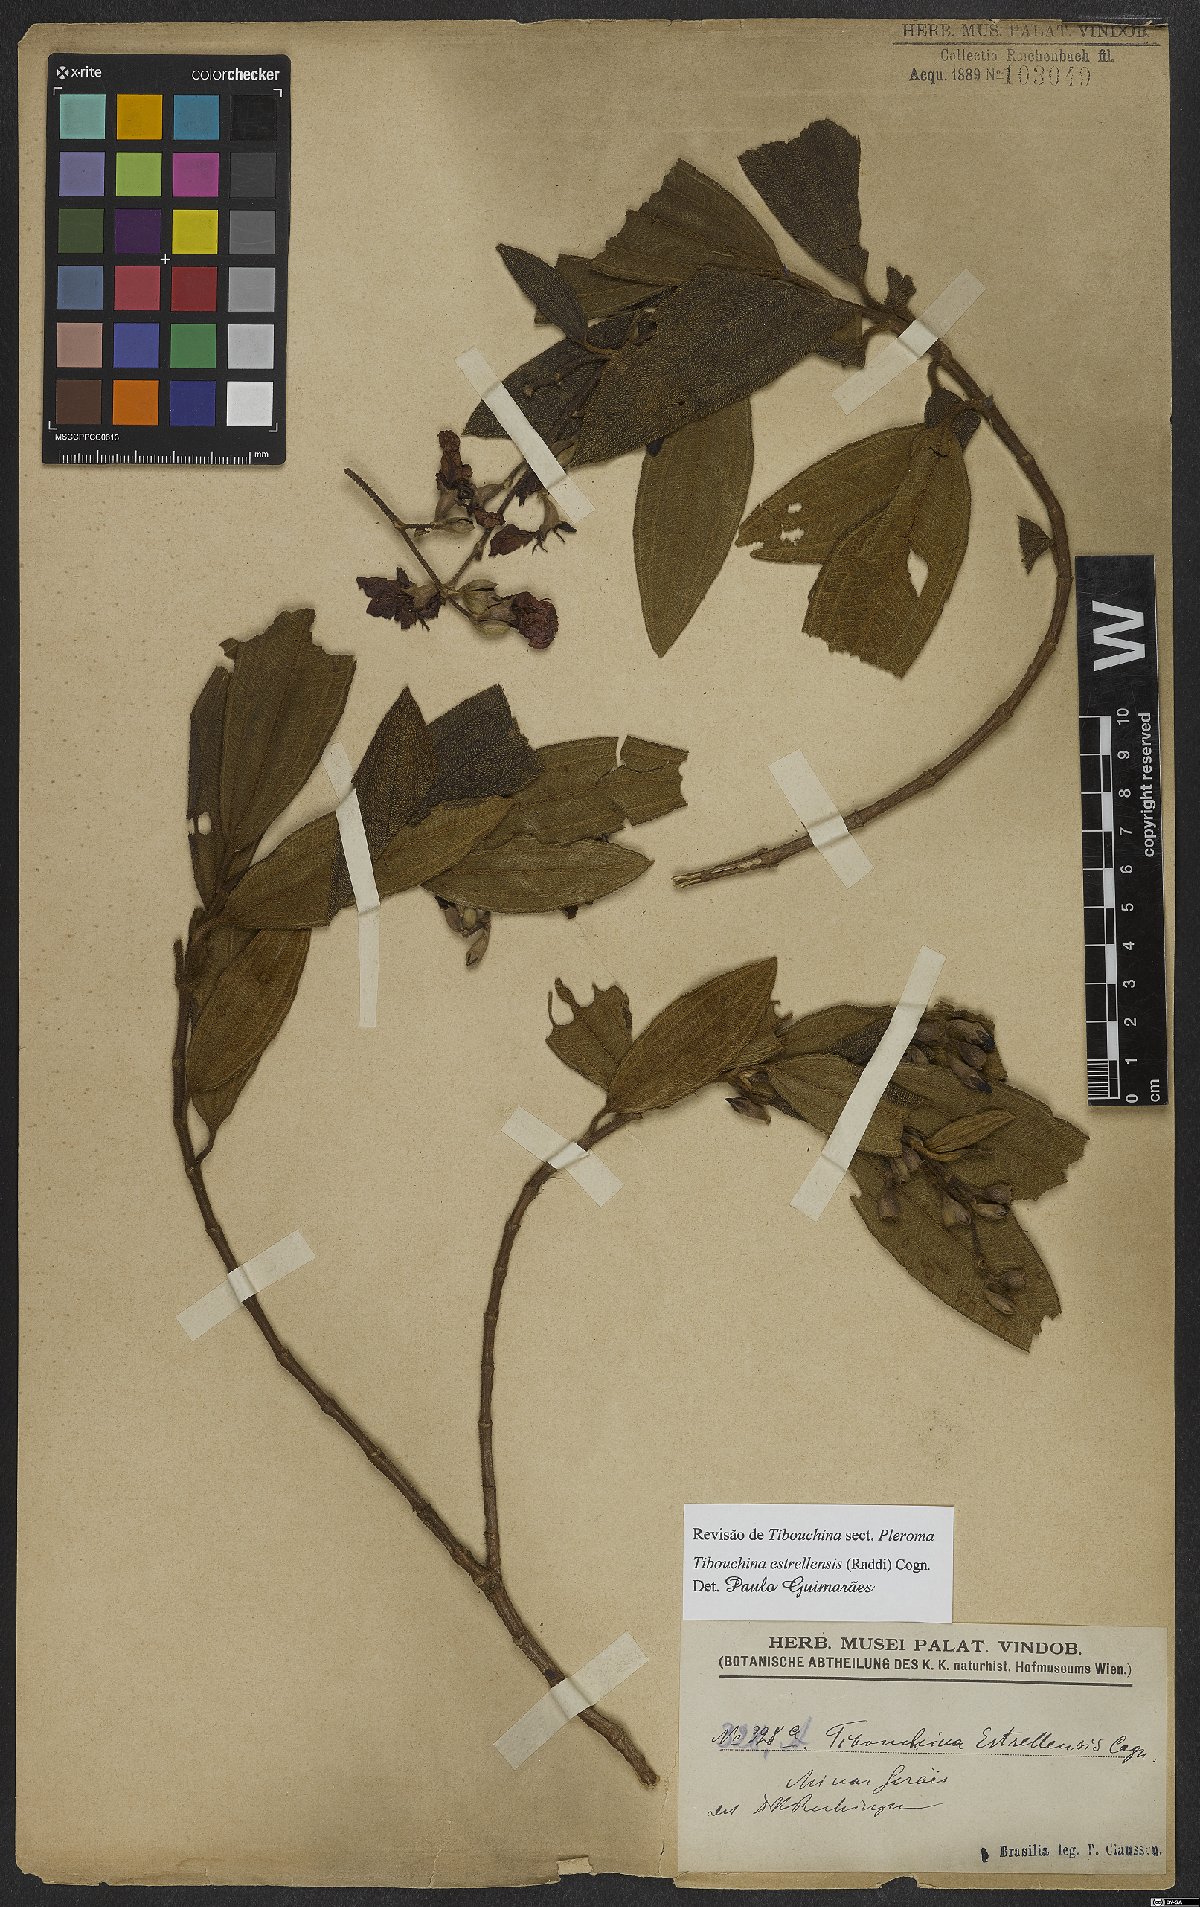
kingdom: Plantae
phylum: Tracheophyta
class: Magnoliopsida
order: Myrtales
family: Melastomataceae
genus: Pleroma
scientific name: Pleroma estrellense
